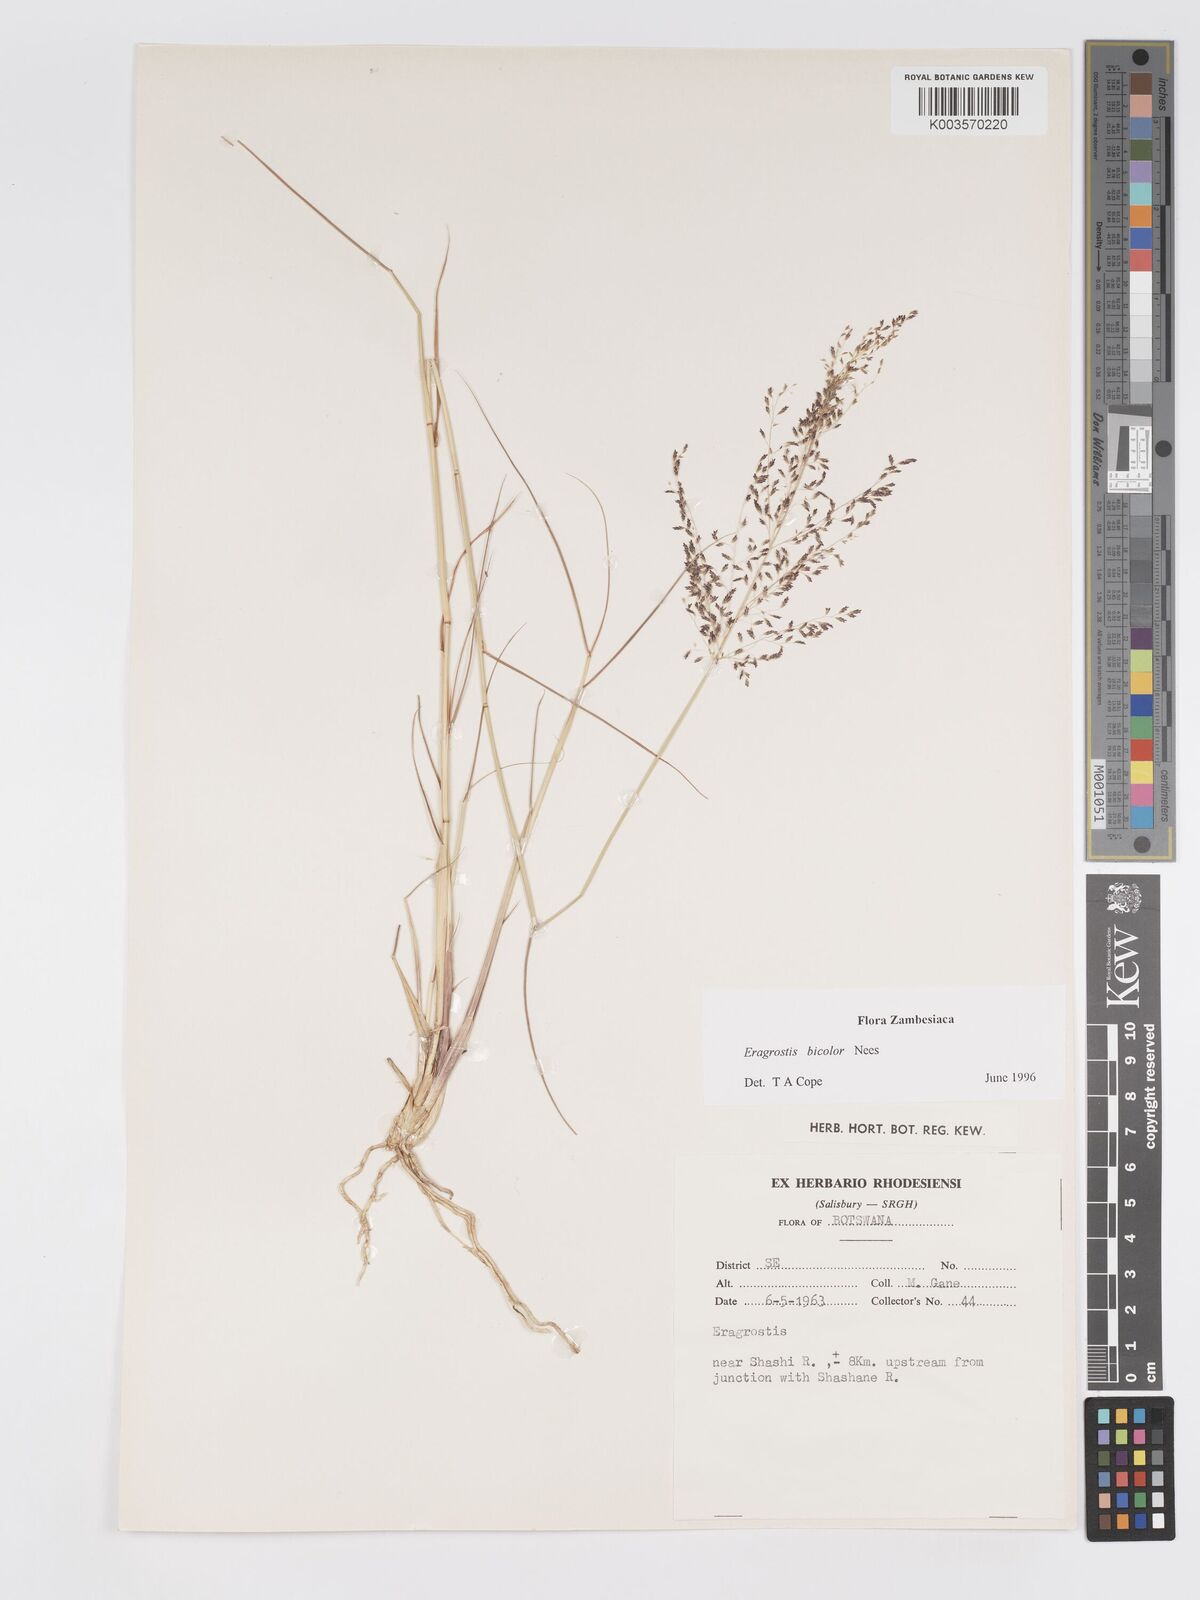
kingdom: Plantae
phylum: Tracheophyta
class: Liliopsida
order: Poales
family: Poaceae
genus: Eragrostis
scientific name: Eragrostis bicolor
